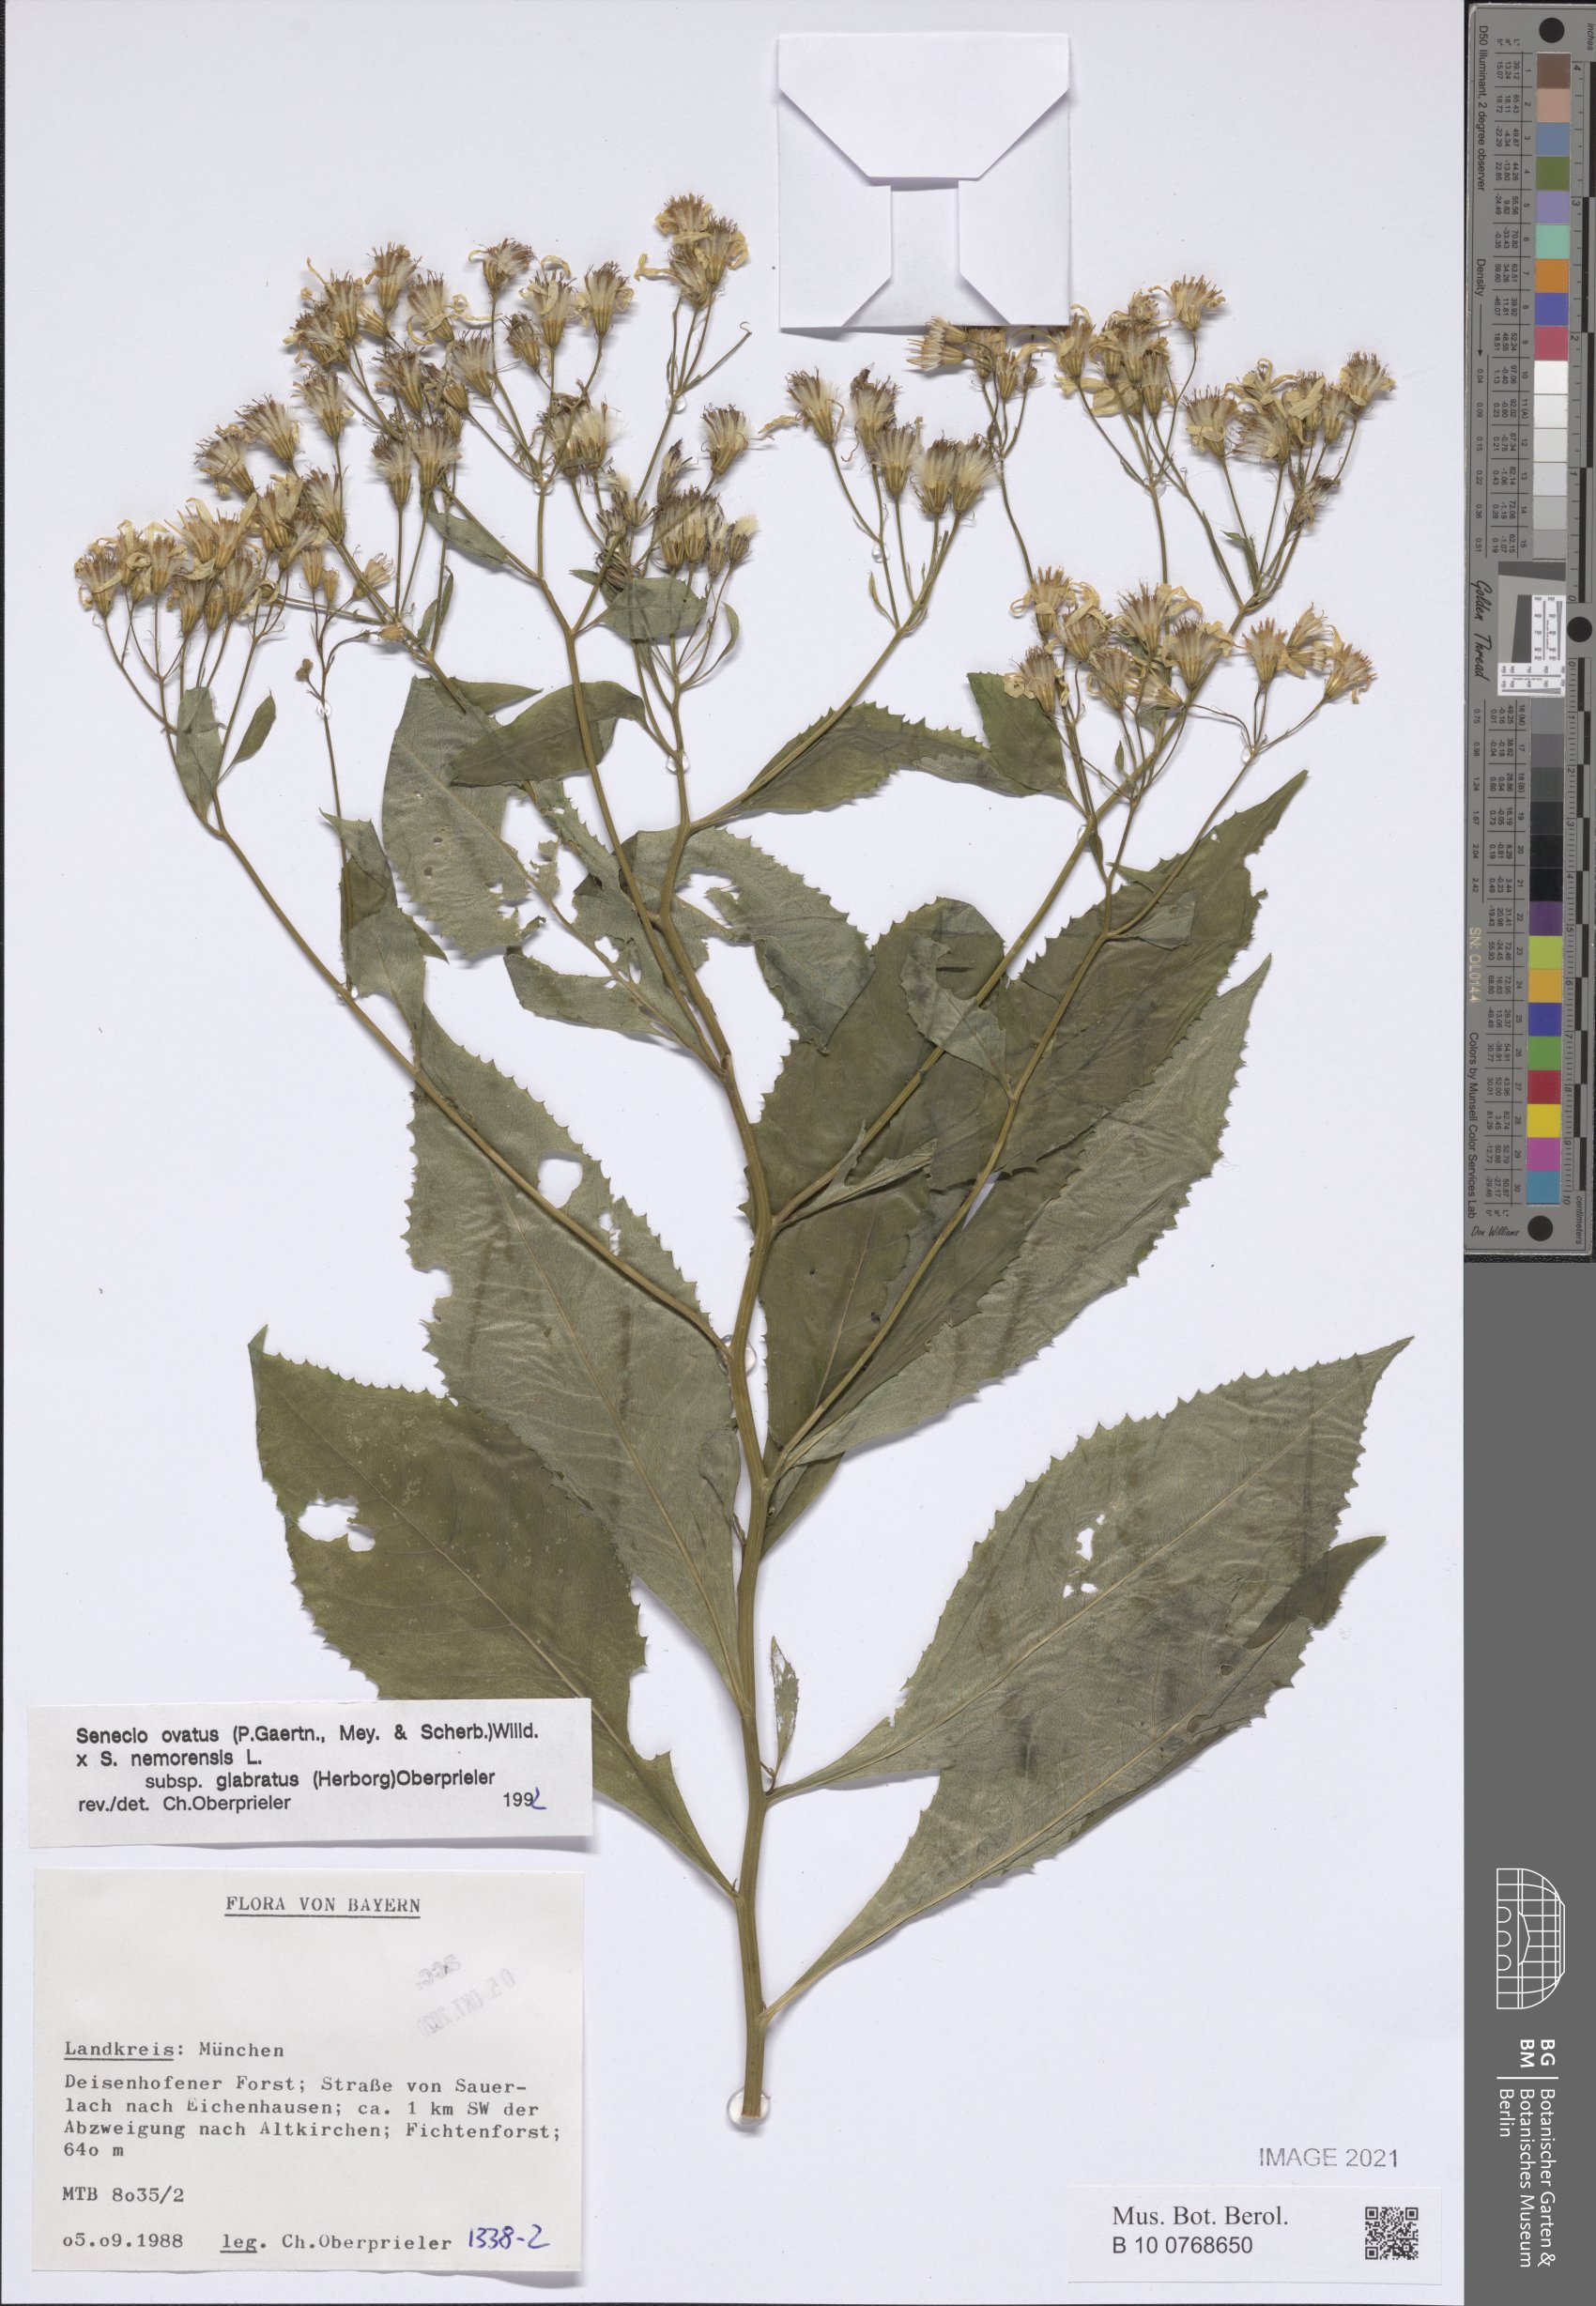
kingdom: Plantae
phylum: Tracheophyta
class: Magnoliopsida
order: Asterales
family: Asteraceae
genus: Senecio
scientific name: Senecio ovatus
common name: Wood ragwort
